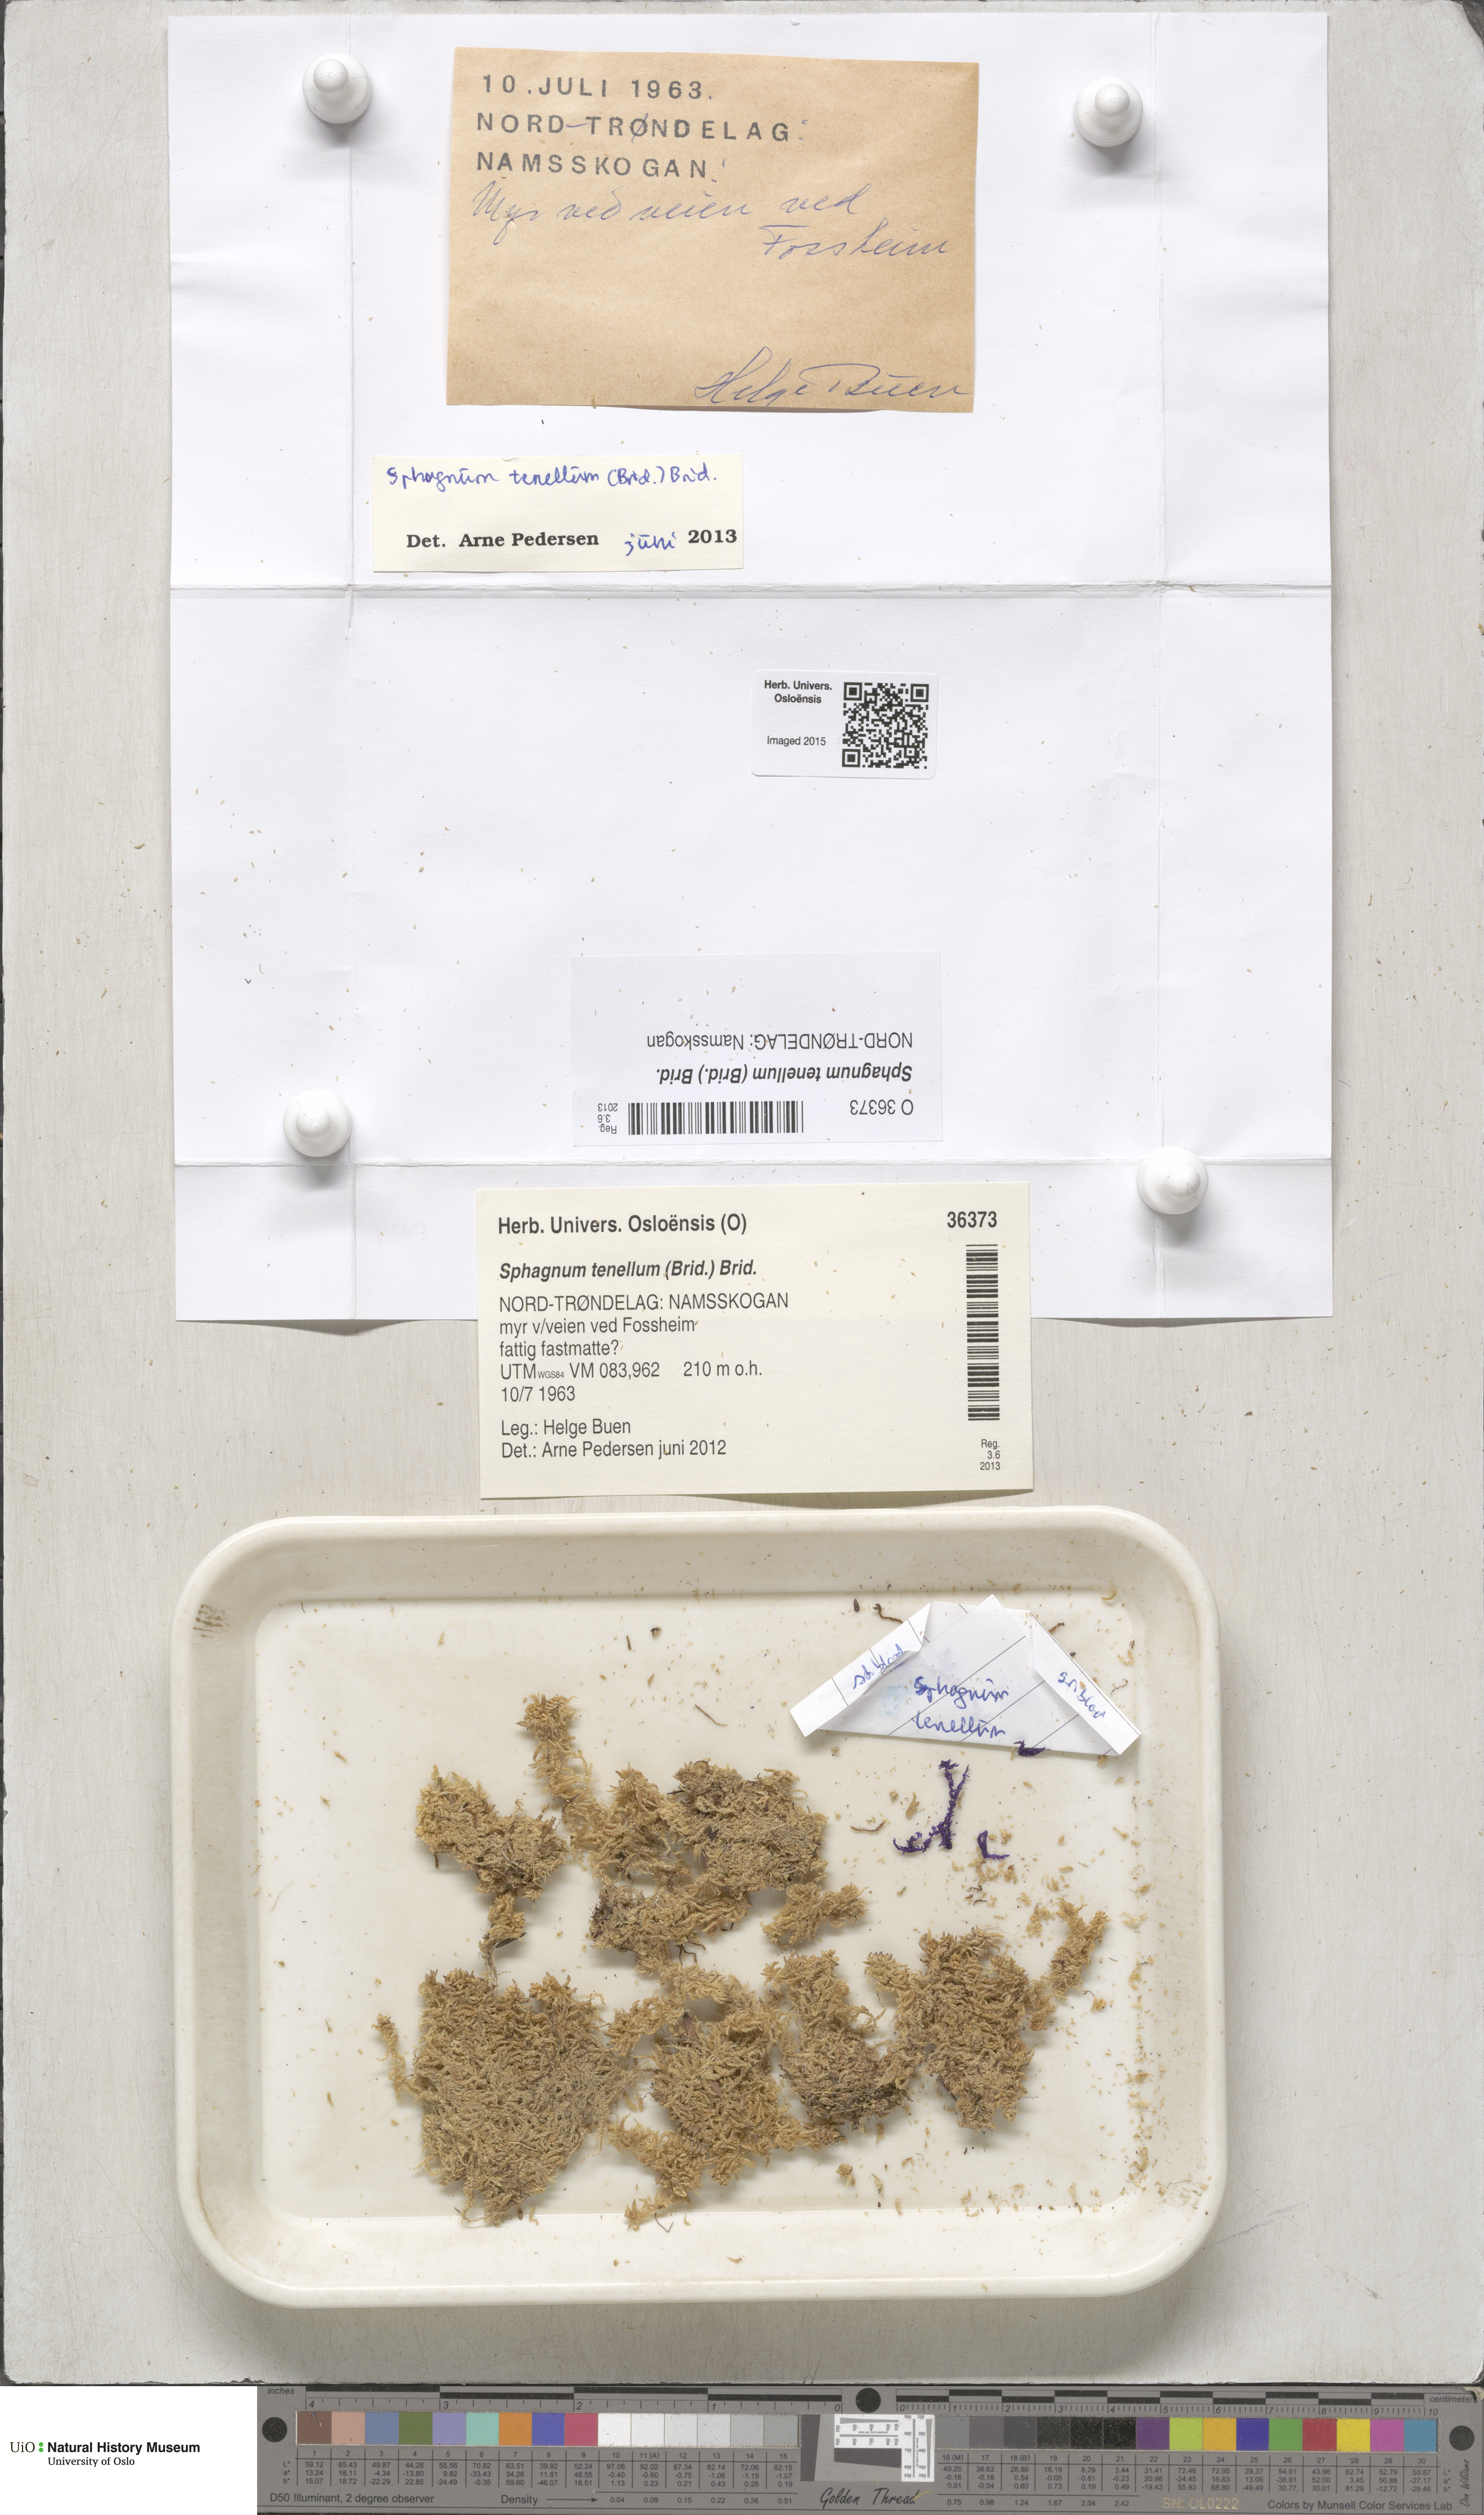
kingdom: Plantae
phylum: Bryophyta
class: Sphagnopsida
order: Sphagnales
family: Sphagnaceae
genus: Sphagnum
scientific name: Sphagnum tenellum
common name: Soft bog-moss
